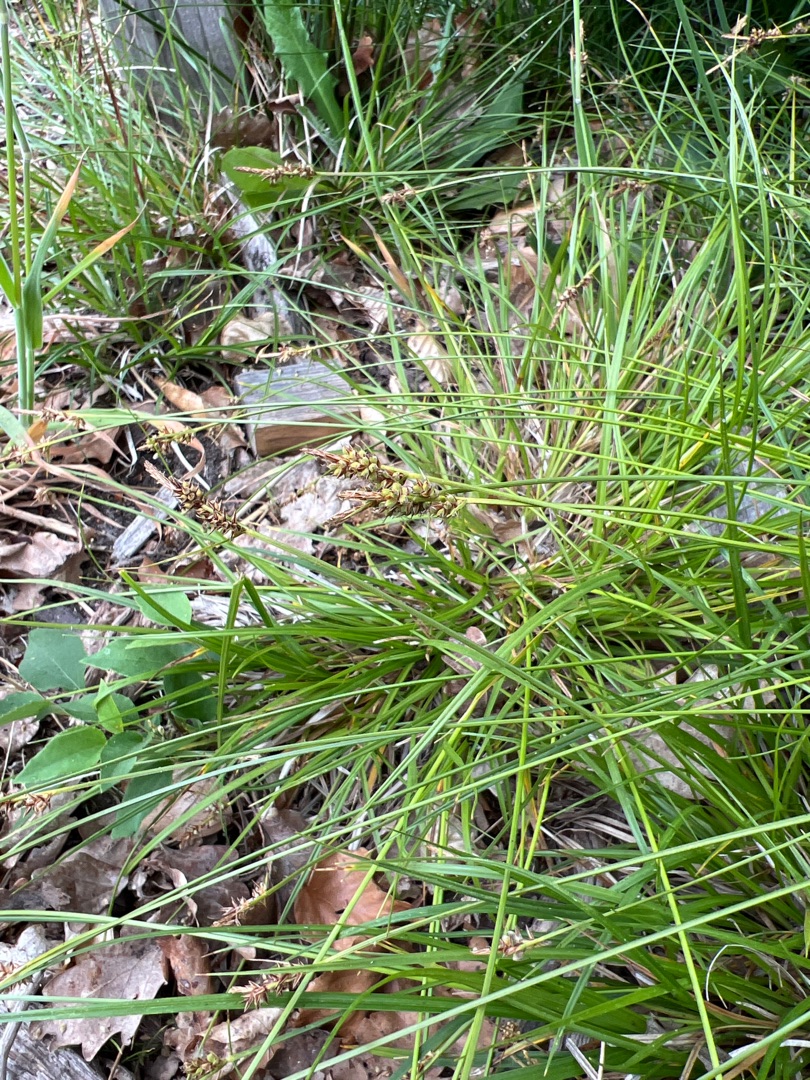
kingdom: Plantae
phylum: Tracheophyta
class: Liliopsida
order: Poales
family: Cyperaceae
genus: Carex
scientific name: Carex pilulifera
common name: Pille-star
